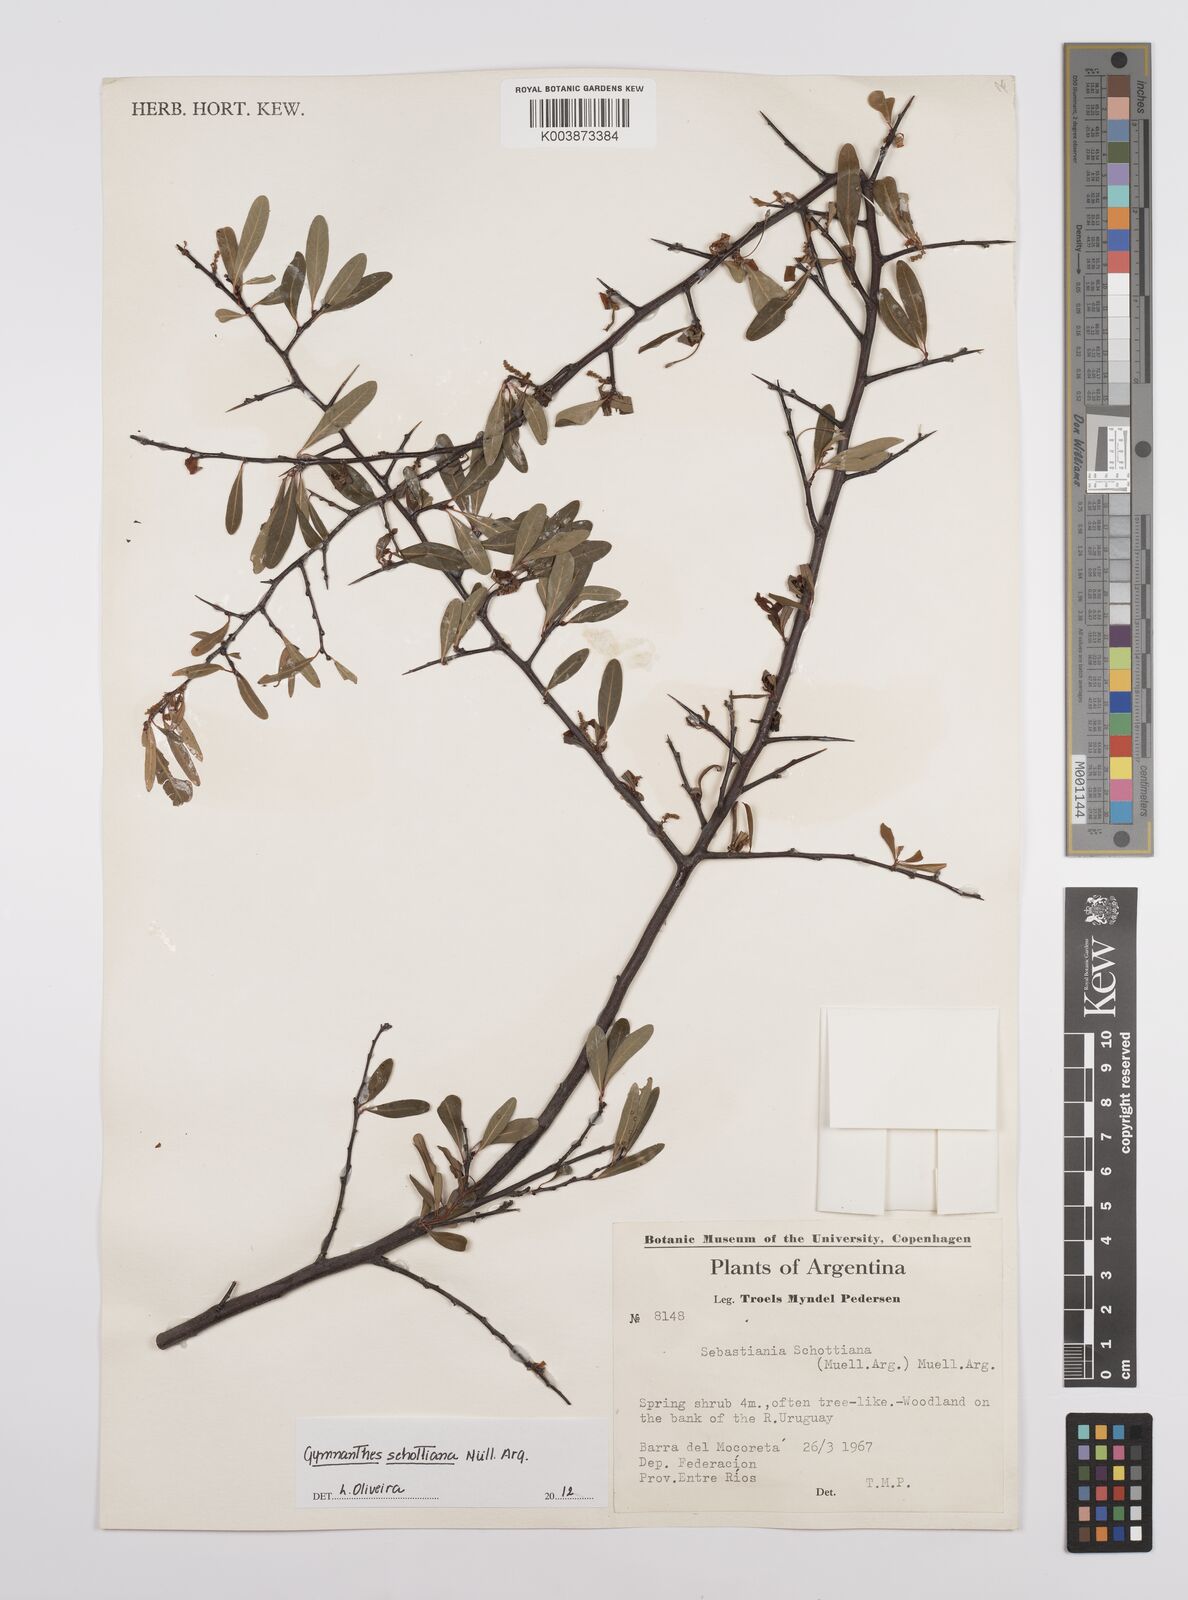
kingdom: Plantae
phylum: Tracheophyta
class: Magnoliopsida
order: Malpighiales
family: Euphorbiaceae
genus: Sebastiania
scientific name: Sebastiania schottiana
